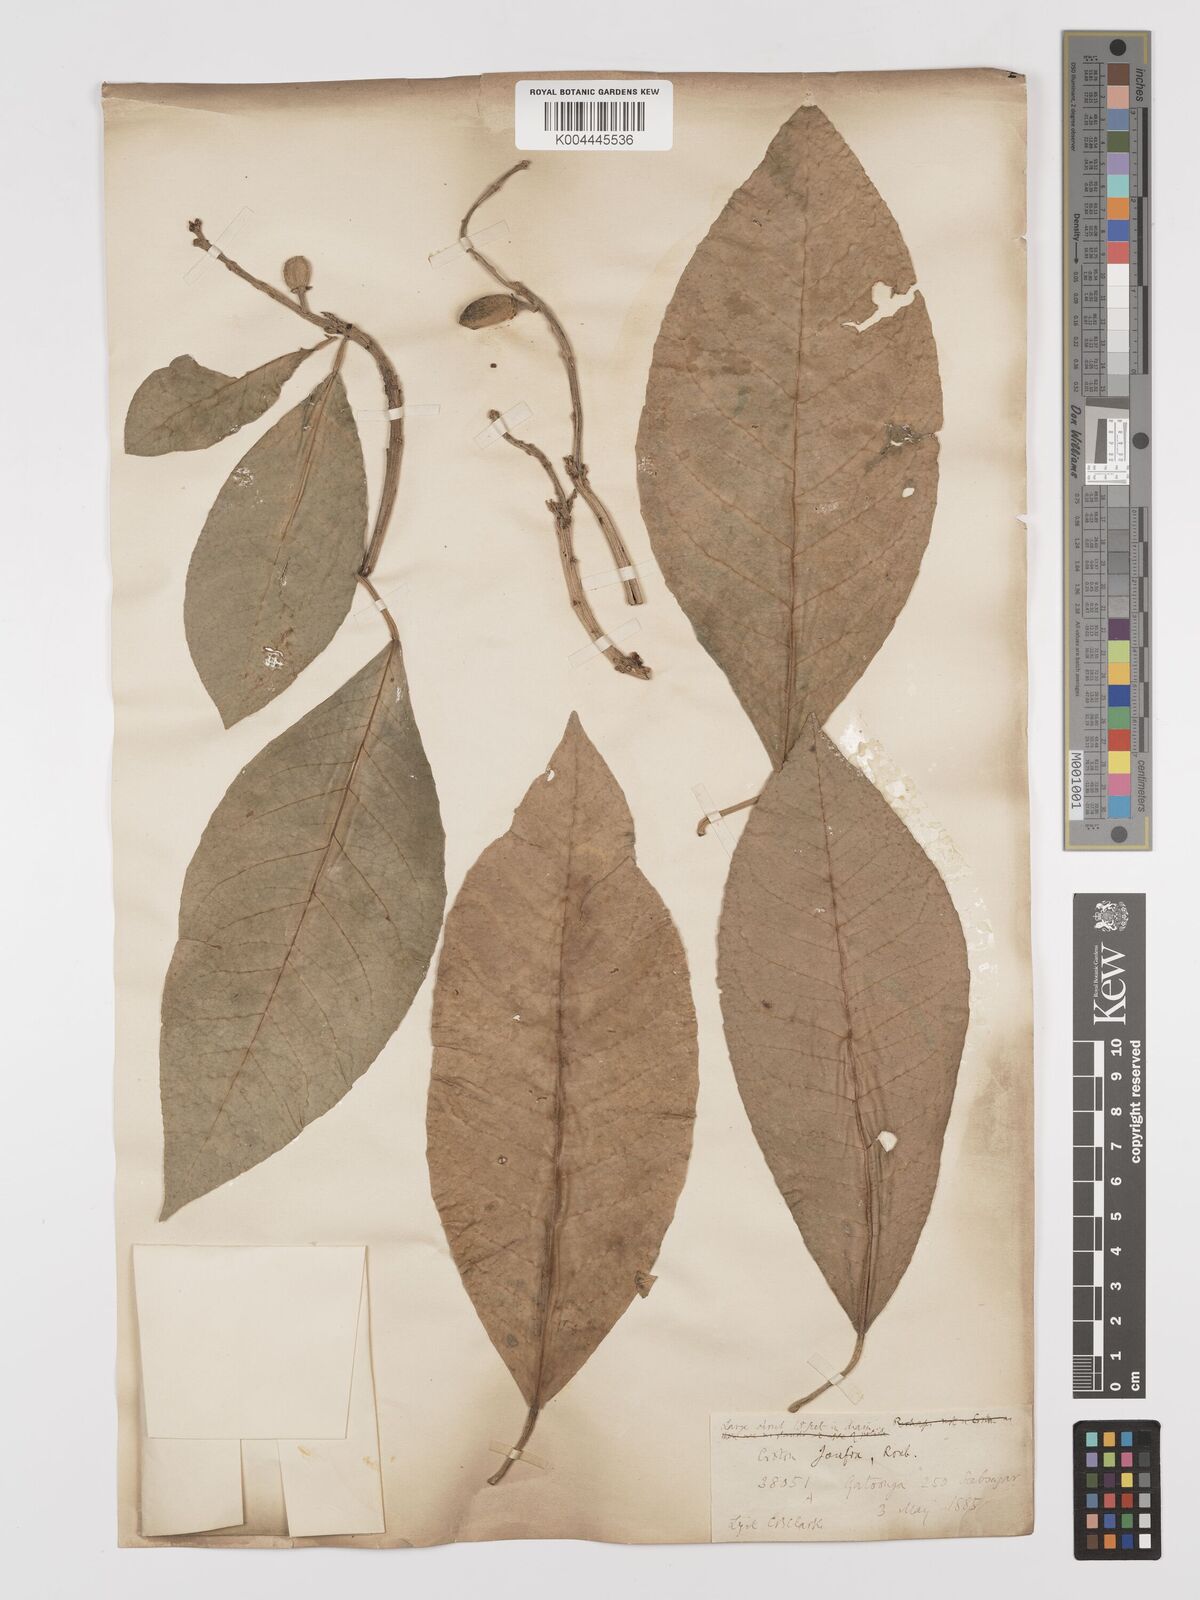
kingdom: Plantae
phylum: Tracheophyta
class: Magnoliopsida
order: Malpighiales
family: Euphorbiaceae
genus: Croton
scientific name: Croton joufra
